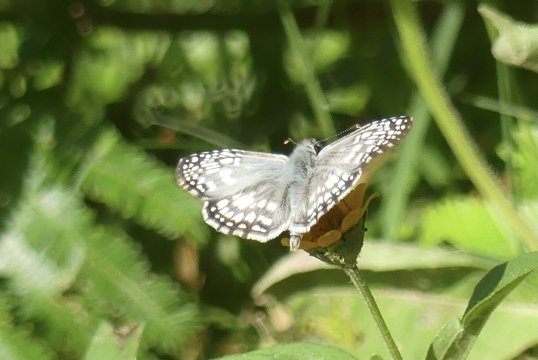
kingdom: Animalia
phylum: Arthropoda
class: Insecta
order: Lepidoptera
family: Hesperiidae
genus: Pyrgus
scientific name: Pyrgus oileus
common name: Tropical Checkered-Skipper
